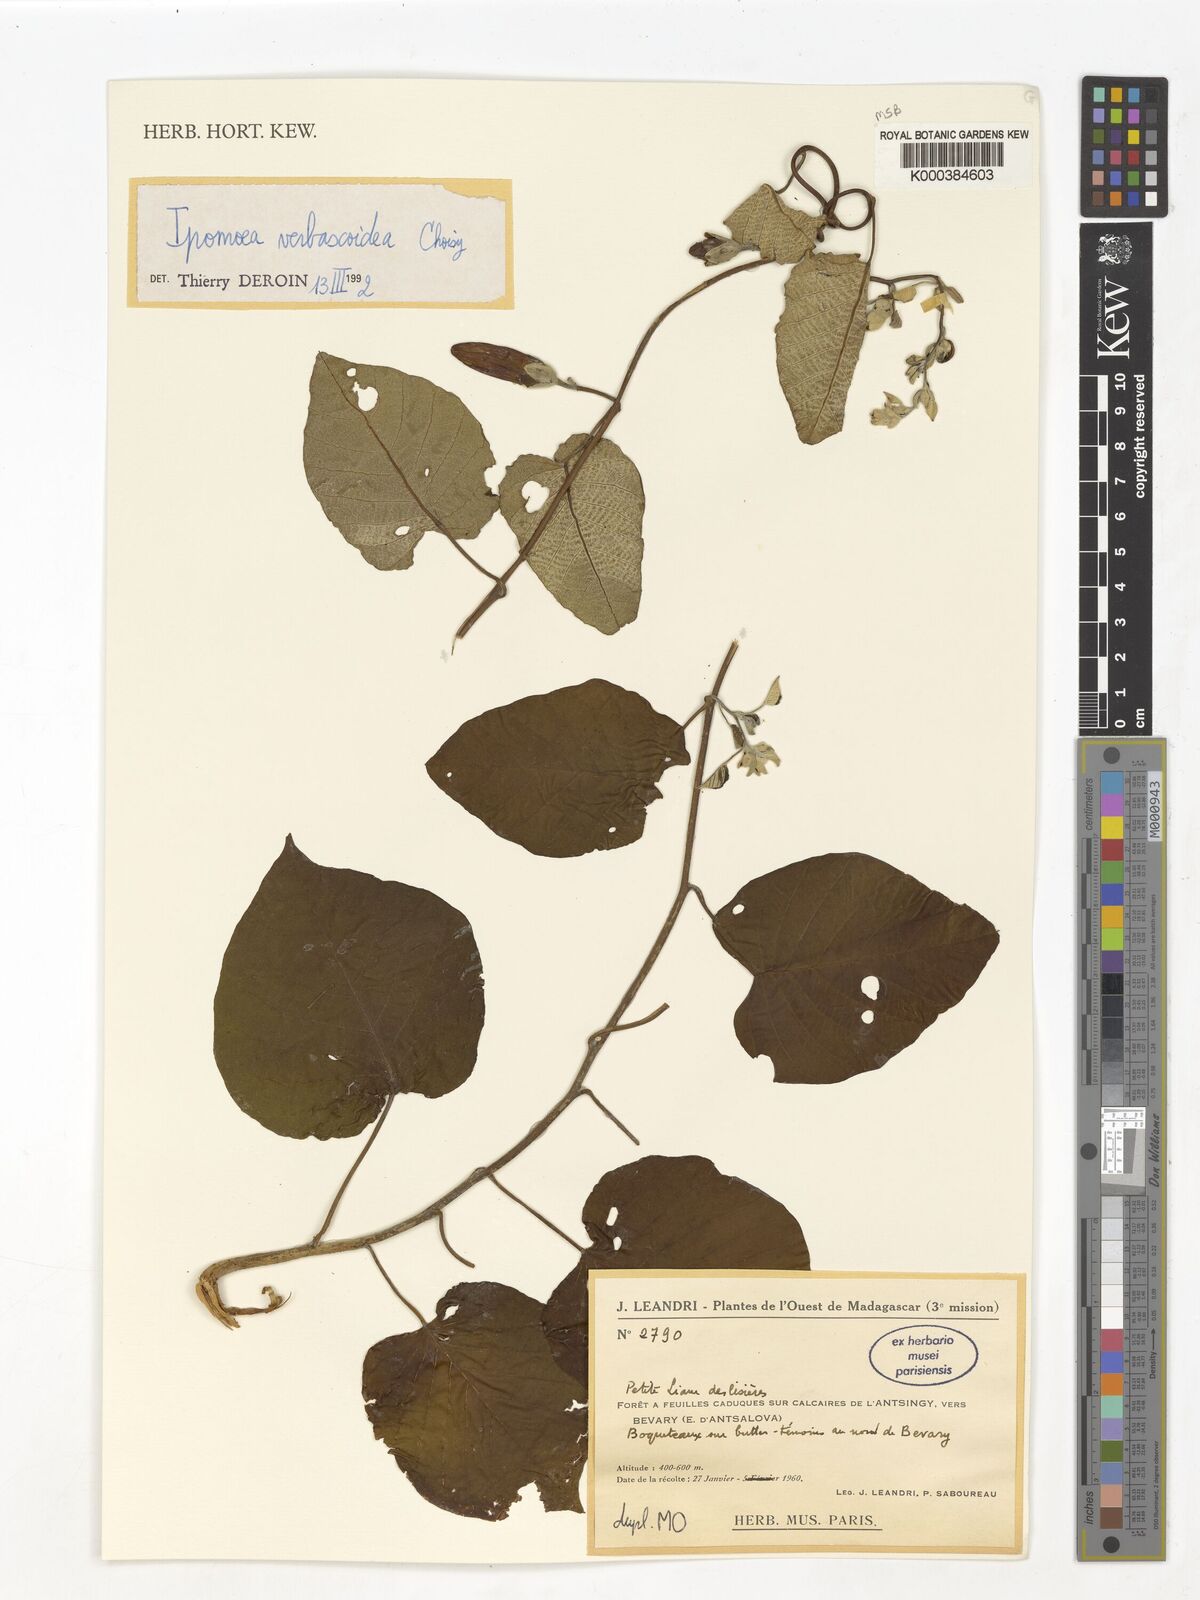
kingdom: Plantae
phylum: Tracheophyta
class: Magnoliopsida
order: Solanales
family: Convolvulaceae
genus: Ipomoea
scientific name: Ipomoea verbascoidea
